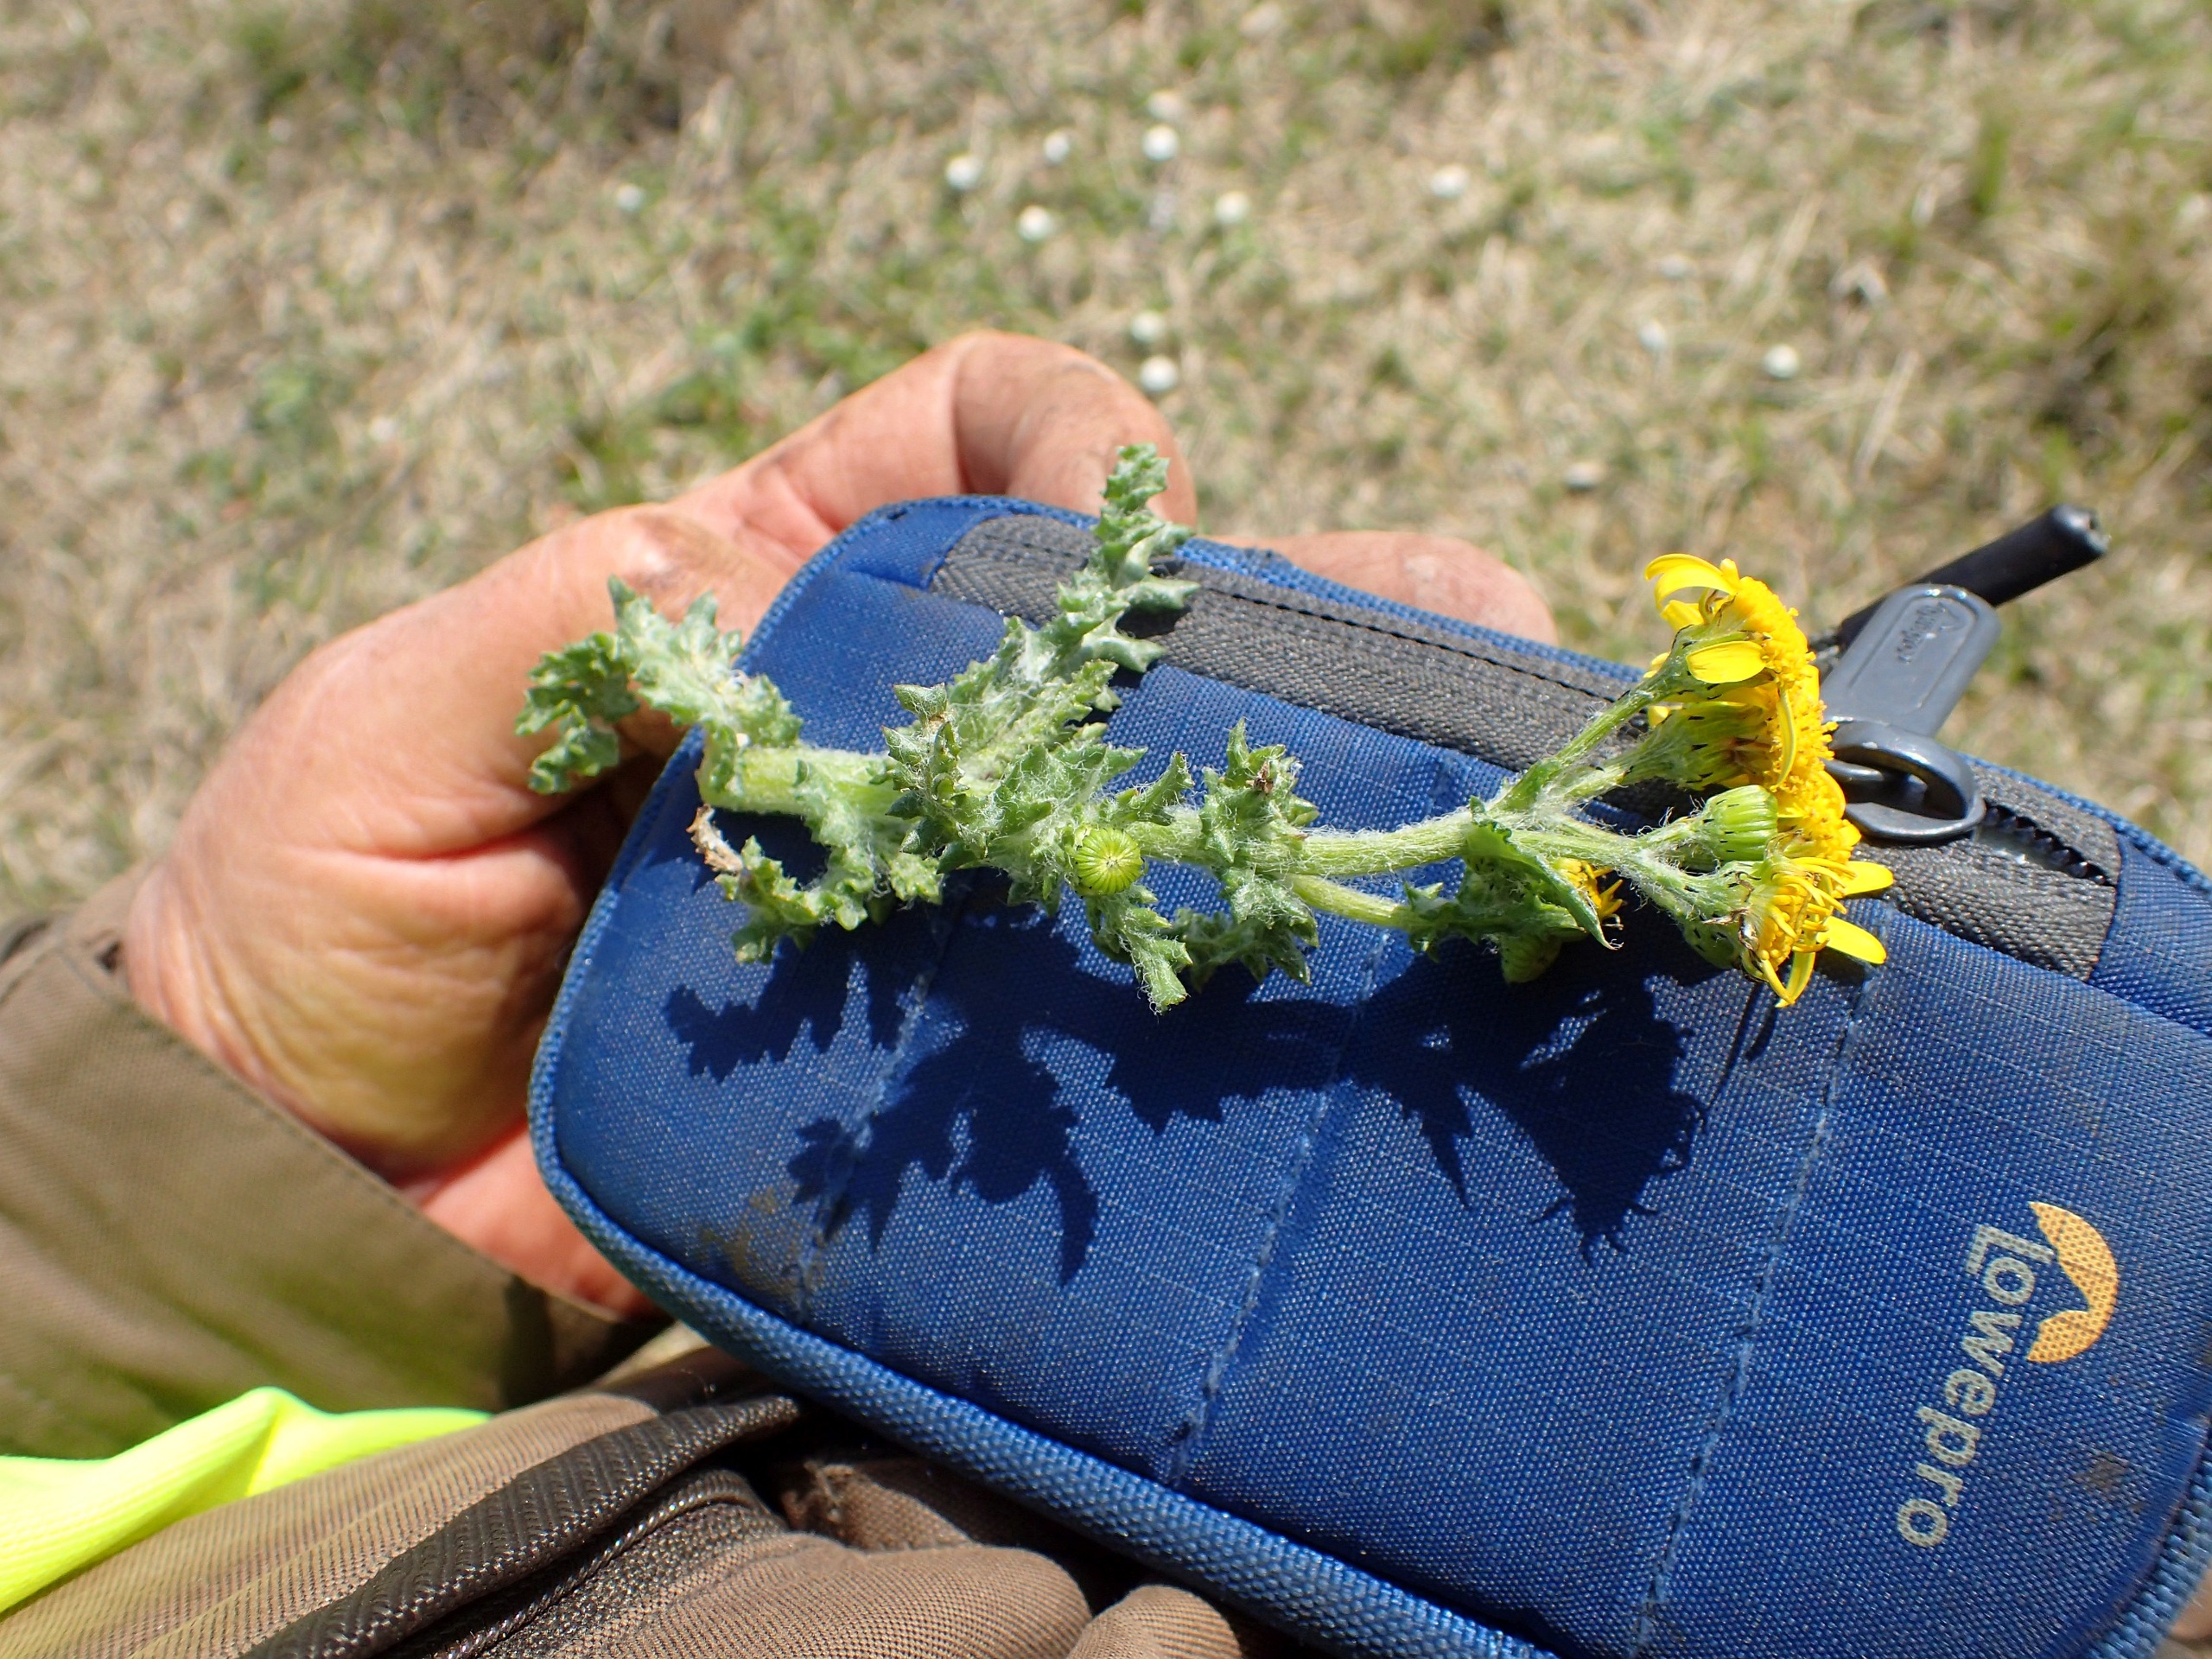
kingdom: Plantae
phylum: Tracheophyta
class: Magnoliopsida
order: Asterales
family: Asteraceae
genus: Senecio
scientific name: Senecio leucanthemifolius
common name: Vår-brandbæger
